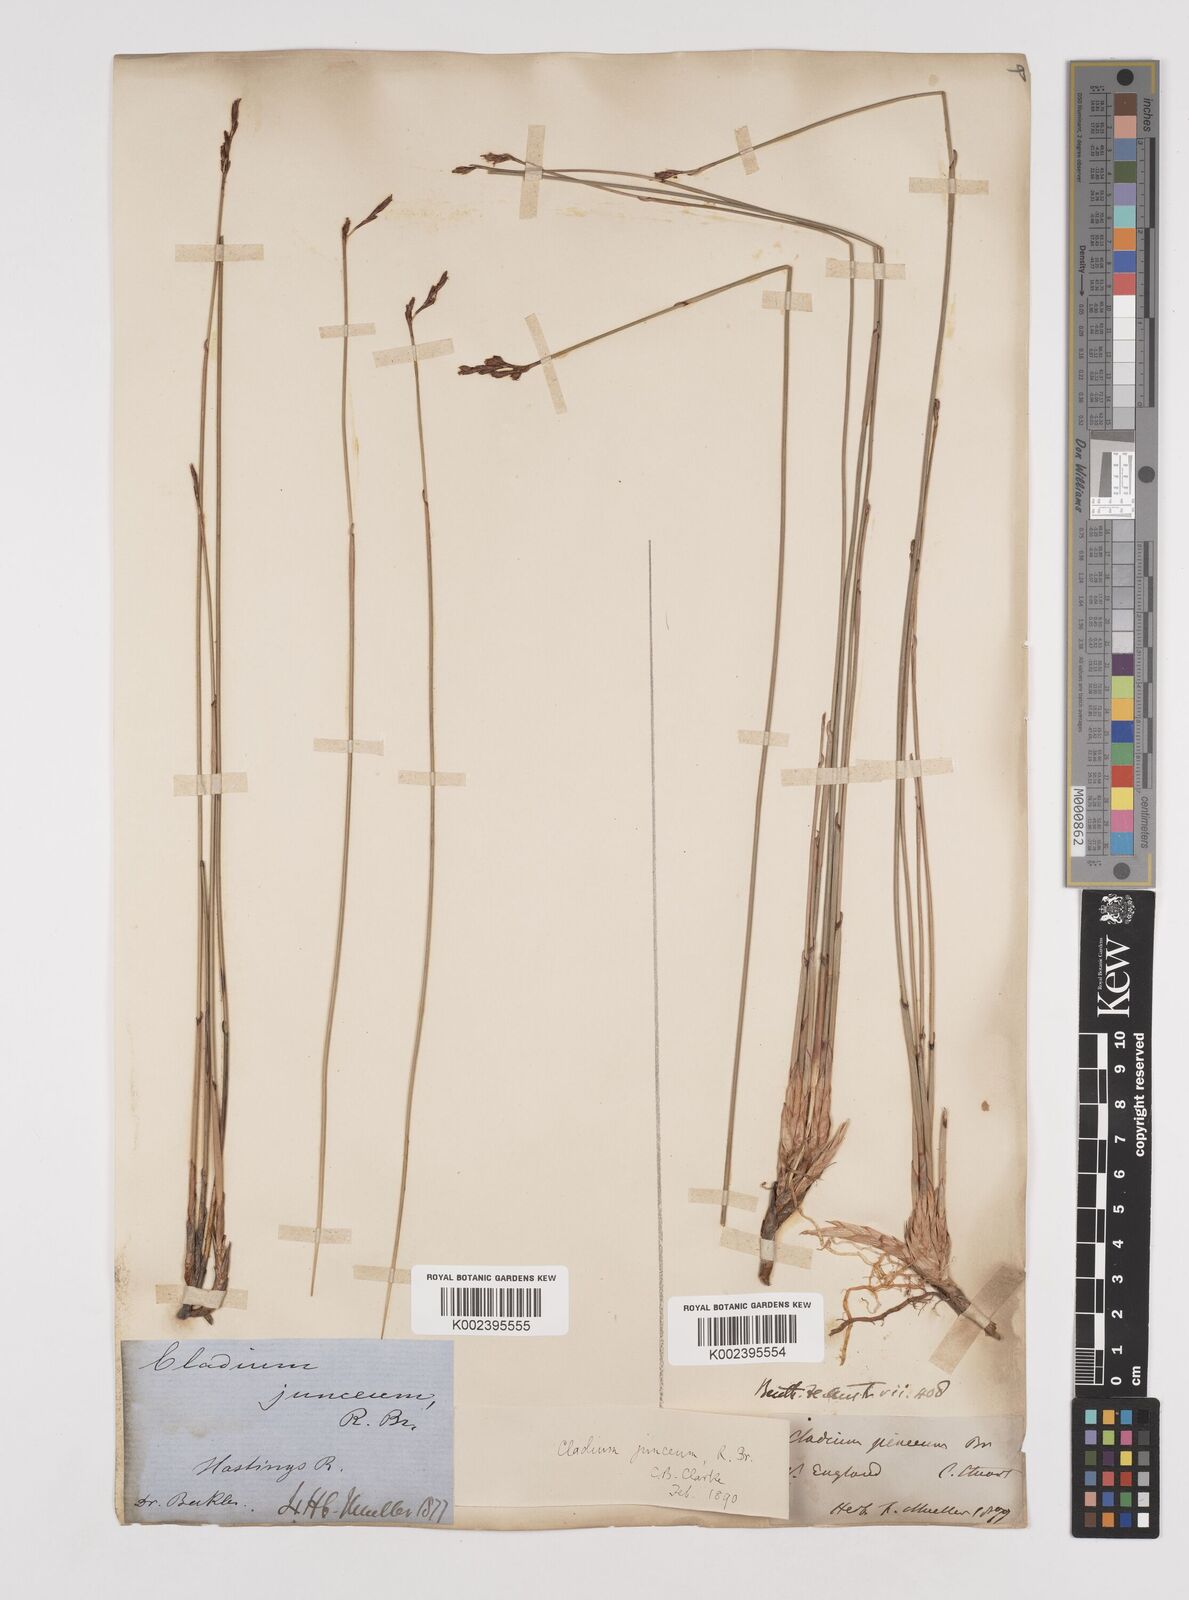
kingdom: Plantae
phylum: Tracheophyta
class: Liliopsida
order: Poales
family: Cyperaceae
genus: Machaerina
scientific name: Machaerina juncea
